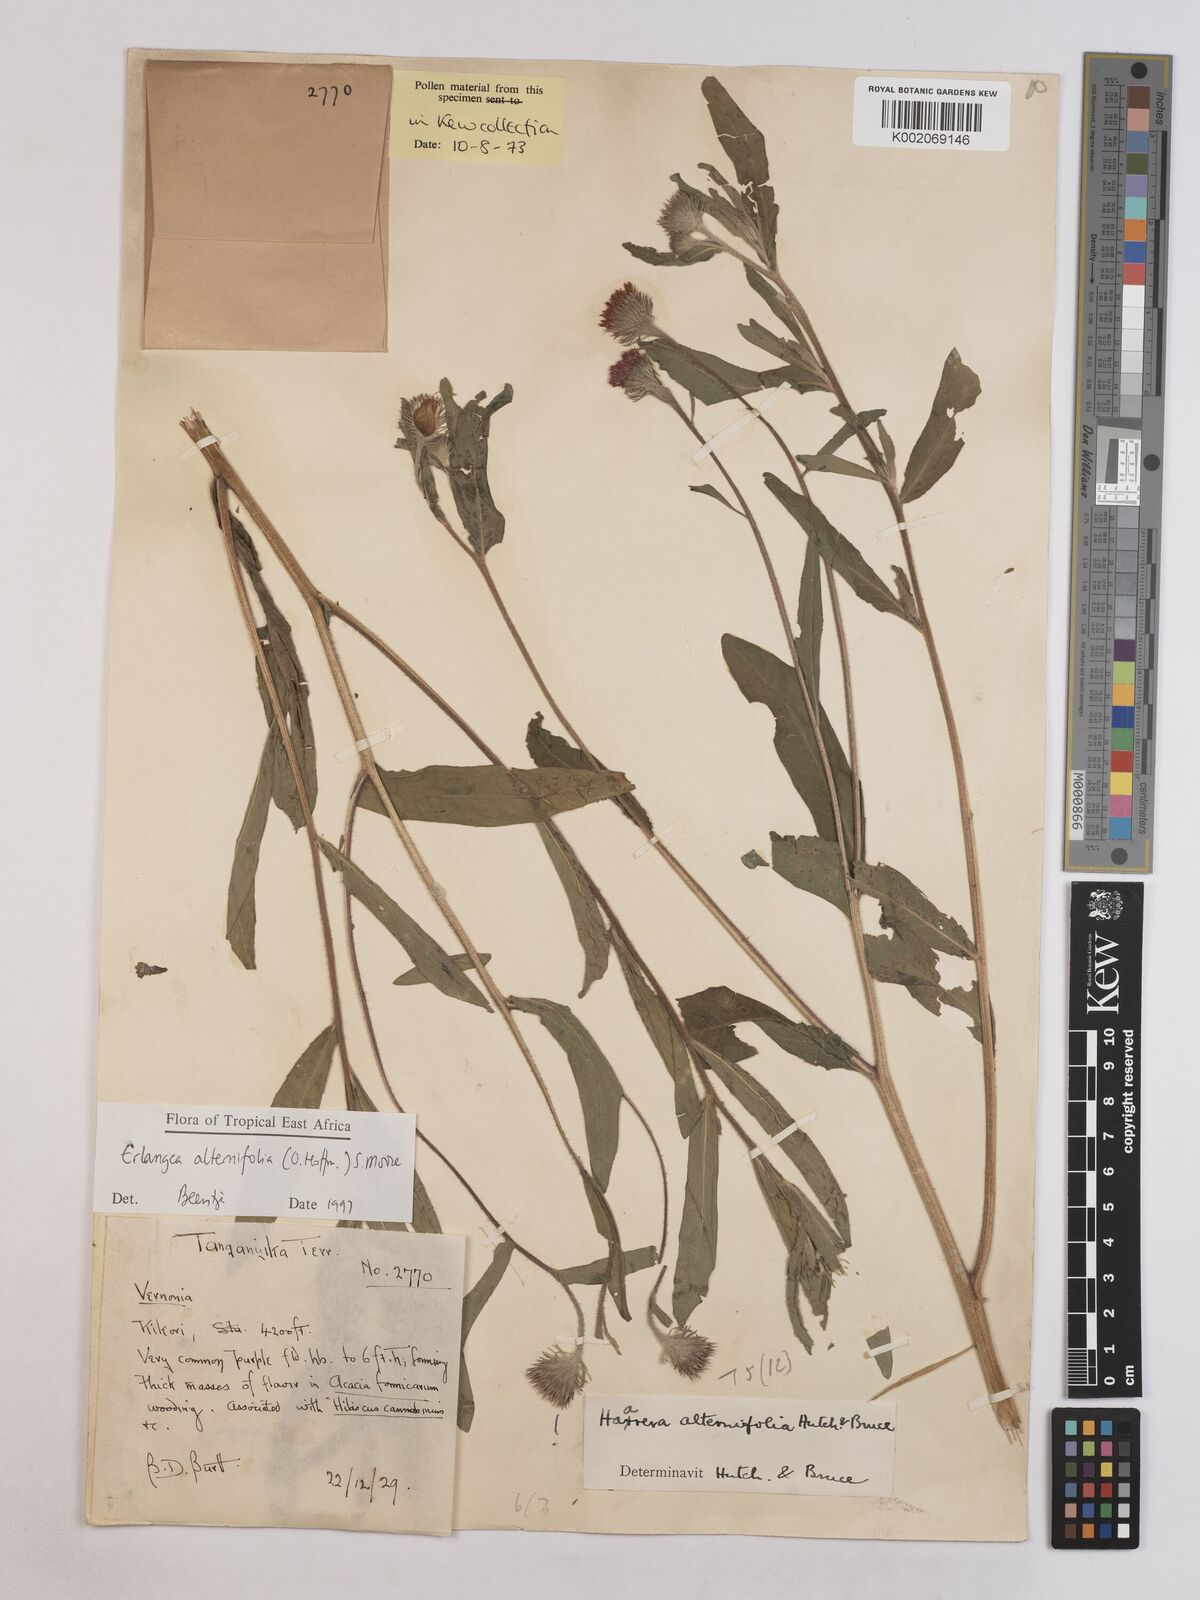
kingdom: Plantae
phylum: Tracheophyta
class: Magnoliopsida
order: Asterales
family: Asteraceae
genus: Erlangea
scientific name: Erlangea alternifolia
